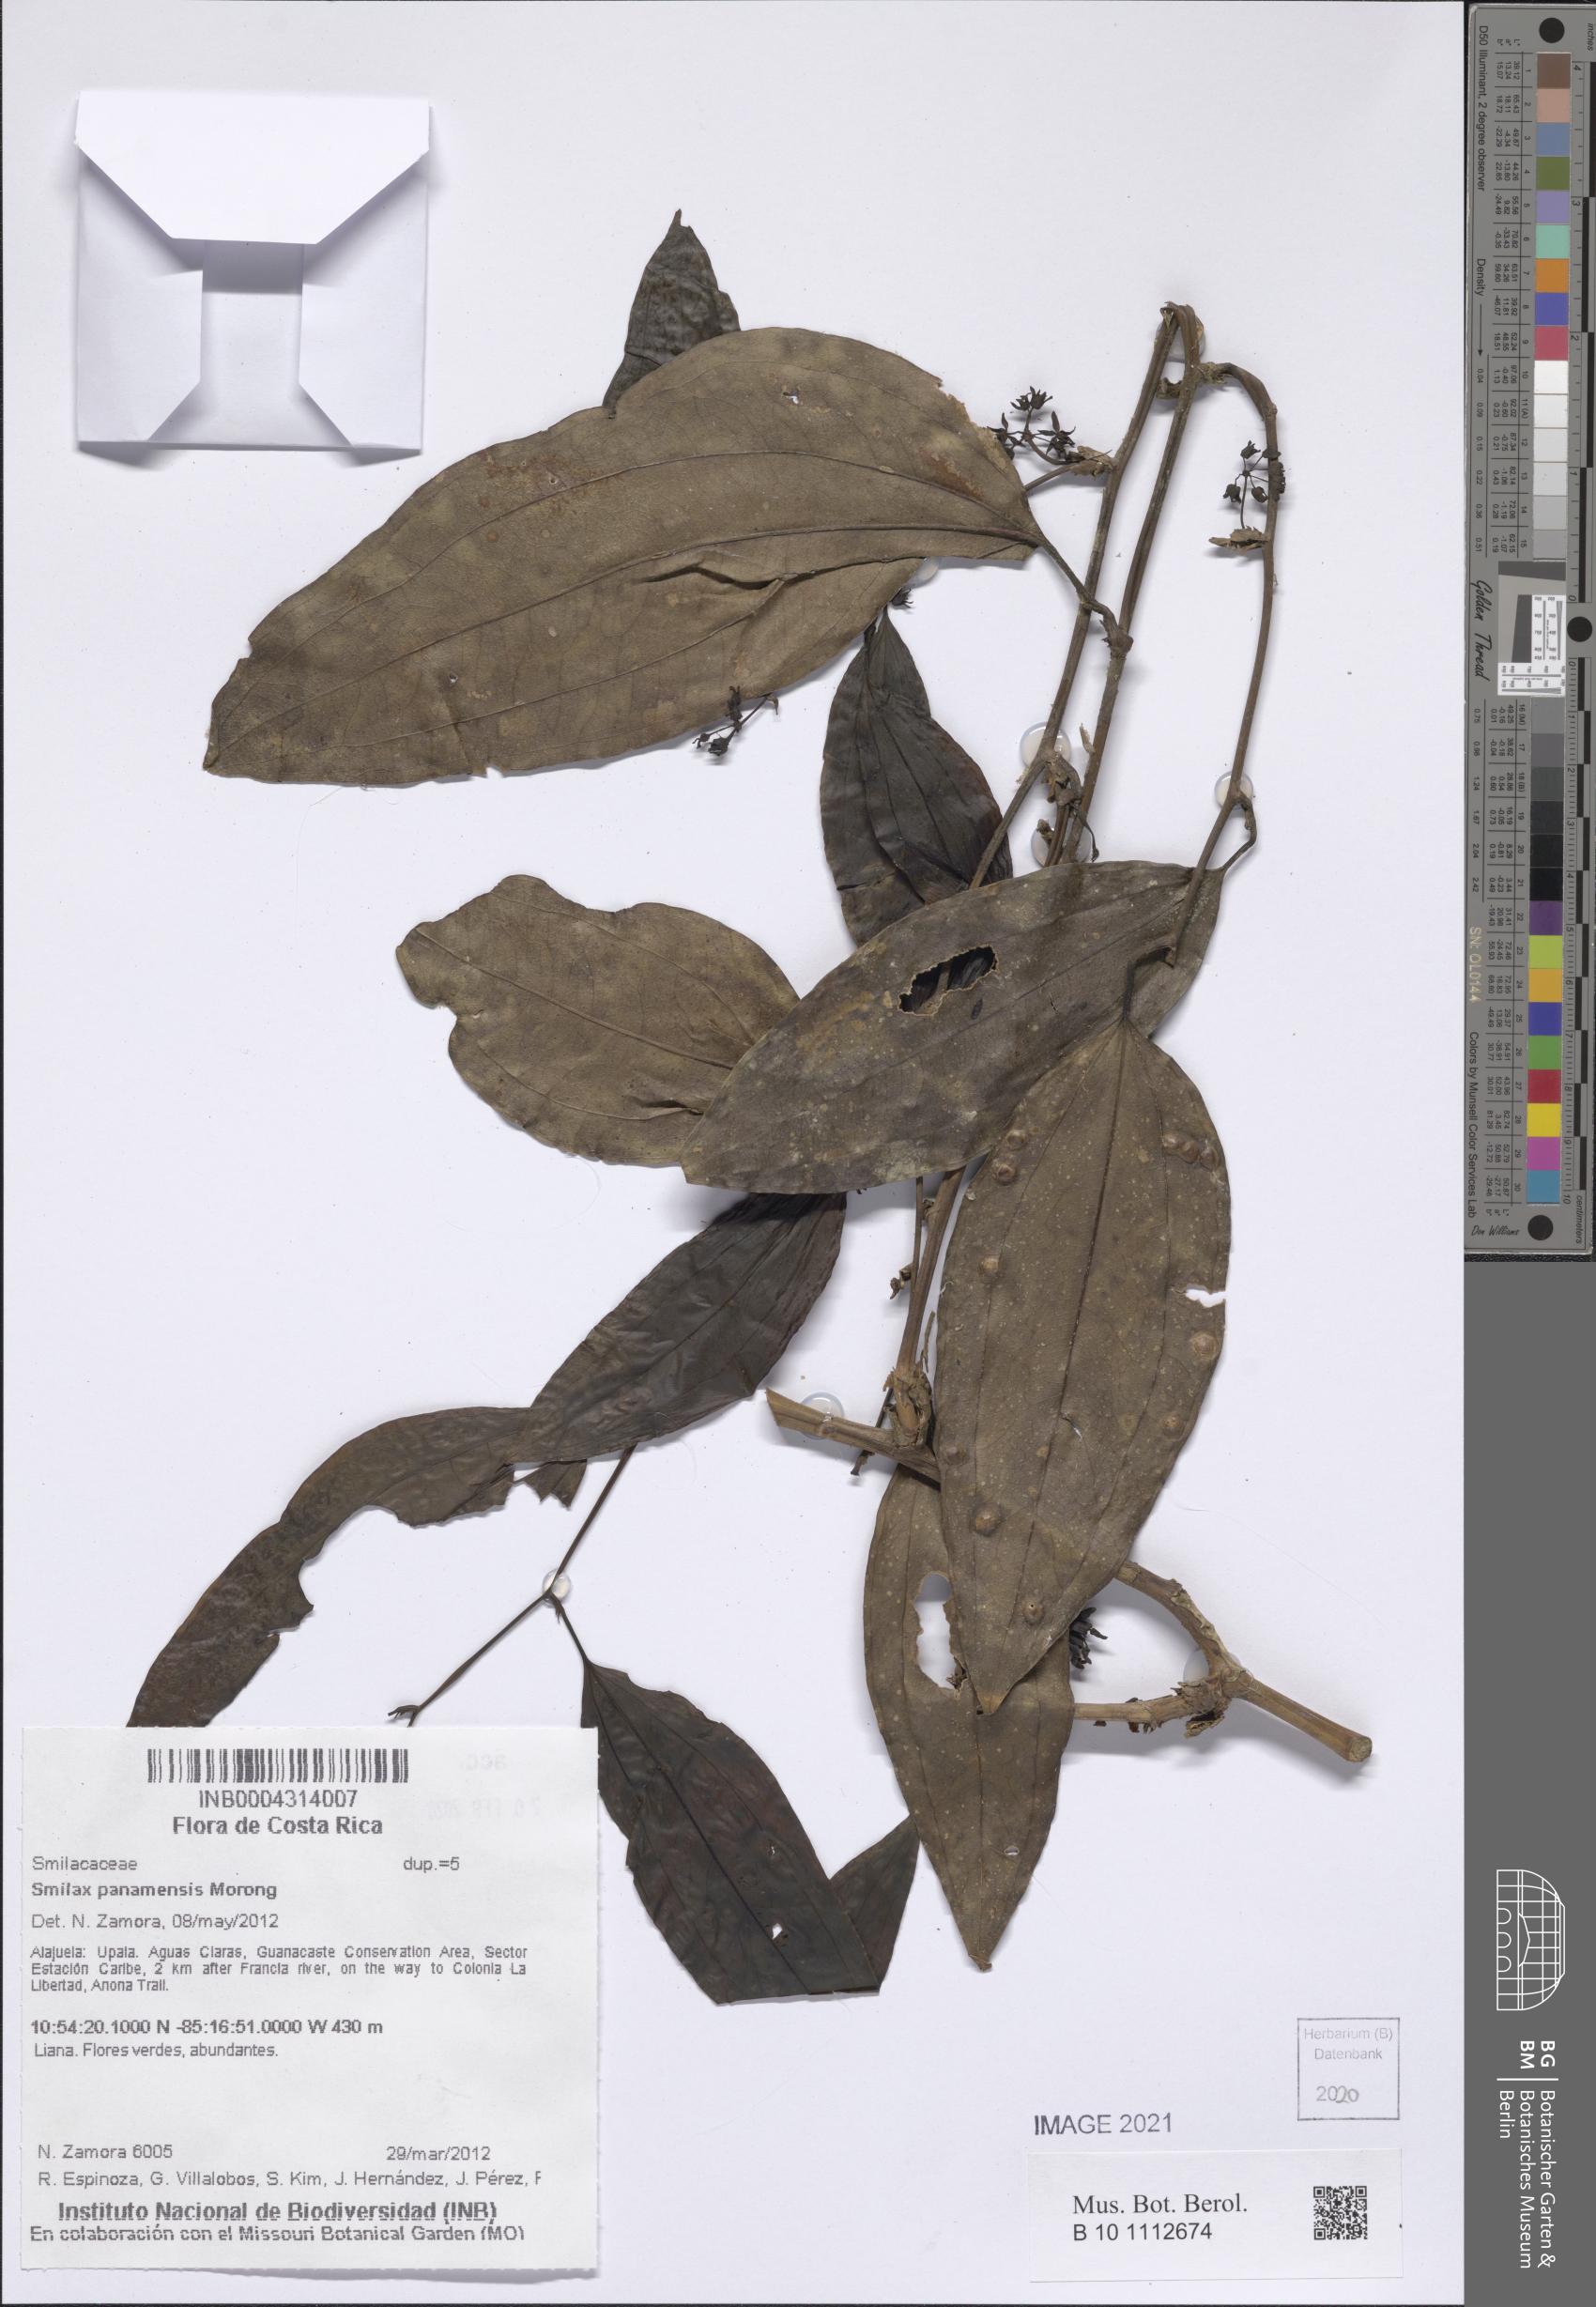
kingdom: Plantae
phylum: Tracheophyta
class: Liliopsida
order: Liliales
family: Smilacaceae
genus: Smilax
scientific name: Smilax purhampuy
